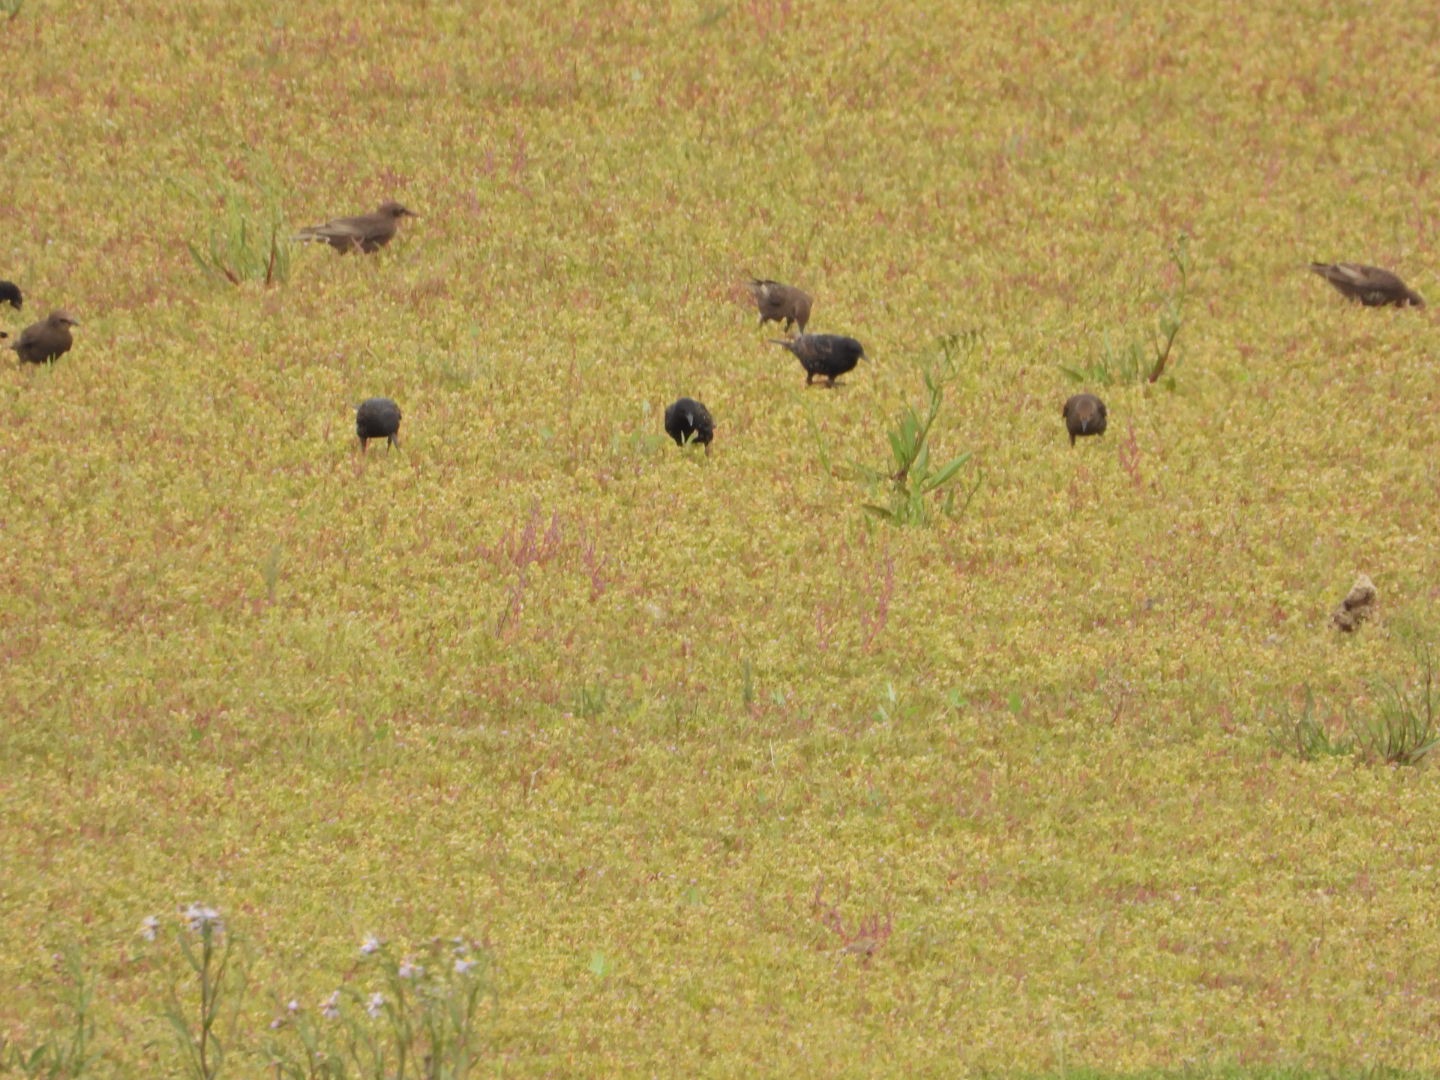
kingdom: Animalia
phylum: Chordata
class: Aves
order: Passeriformes
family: Sturnidae
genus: Sturnus
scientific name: Sturnus vulgaris
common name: Stær
